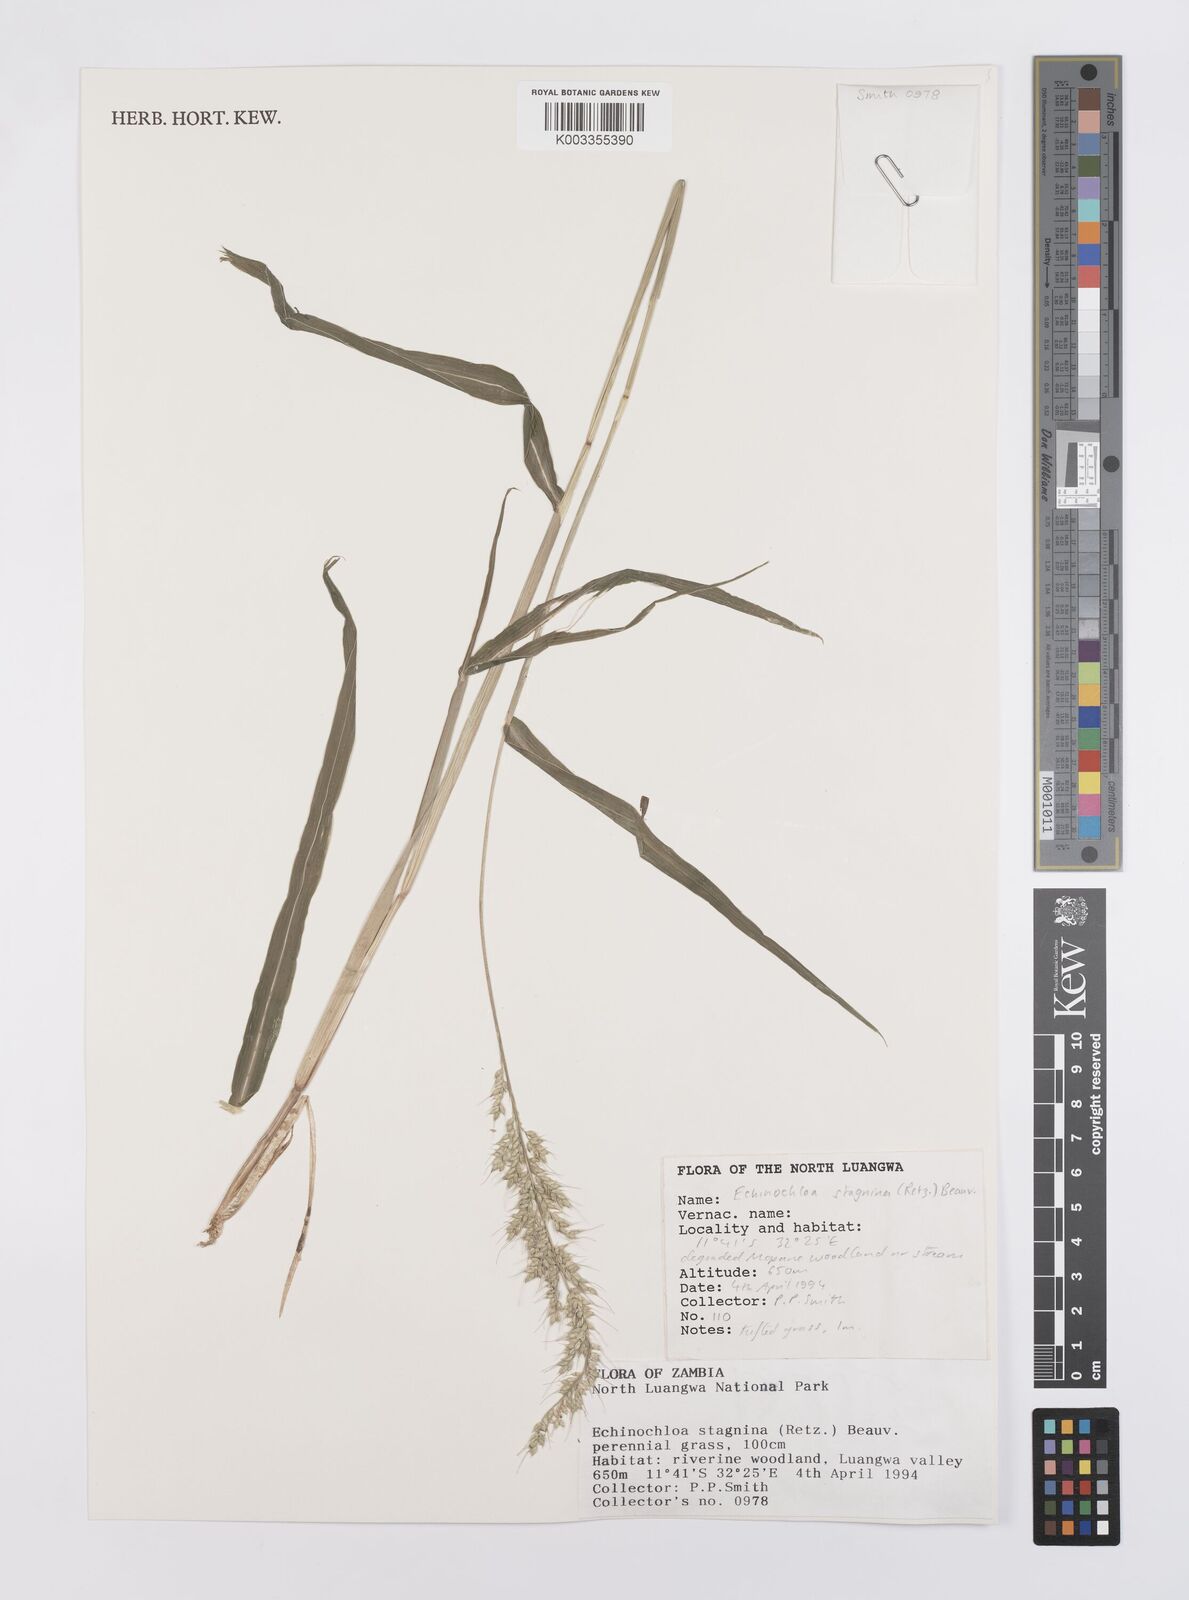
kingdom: Plantae
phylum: Tracheophyta
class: Liliopsida
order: Poales
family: Poaceae
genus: Echinochloa
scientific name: Echinochloa stagnina
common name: Burgu grass
